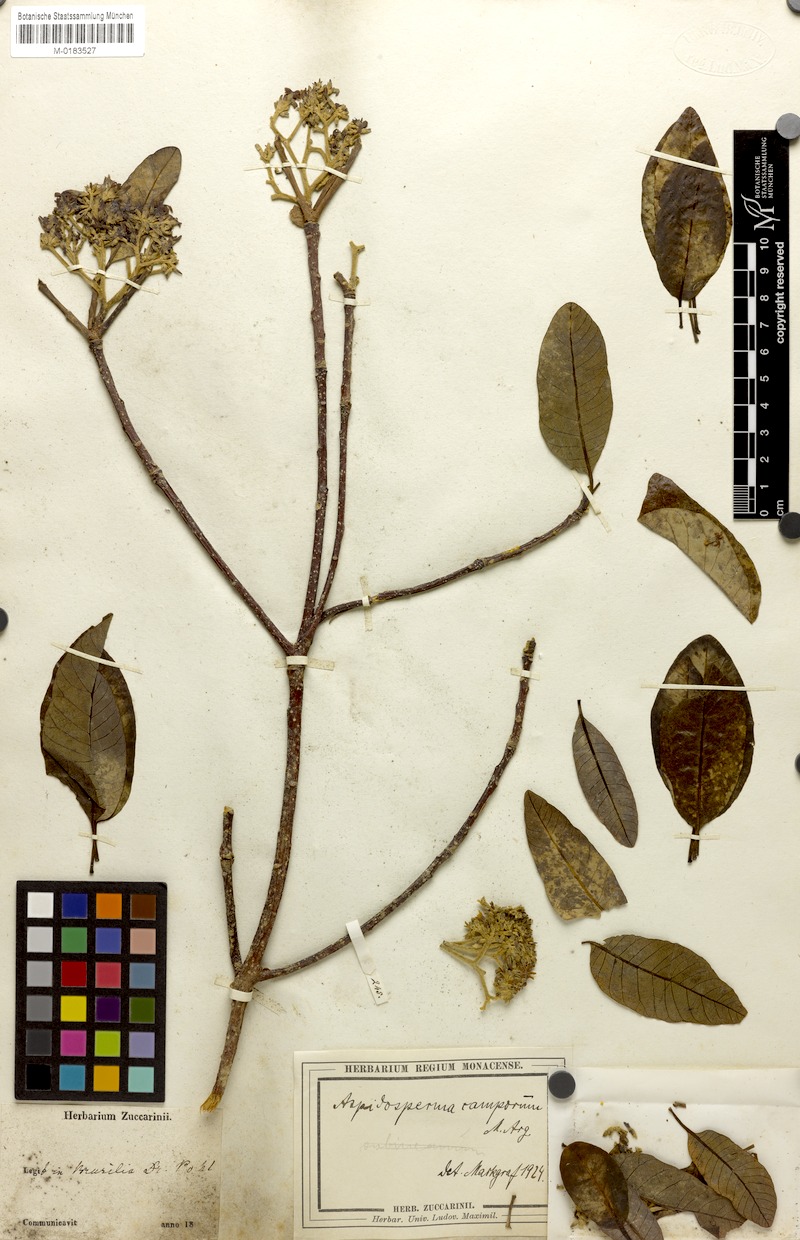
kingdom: Plantae
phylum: Tracheophyta
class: Magnoliopsida
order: Gentianales
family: Apocynaceae
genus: Aspidosperma
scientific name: Aspidosperma camporum
